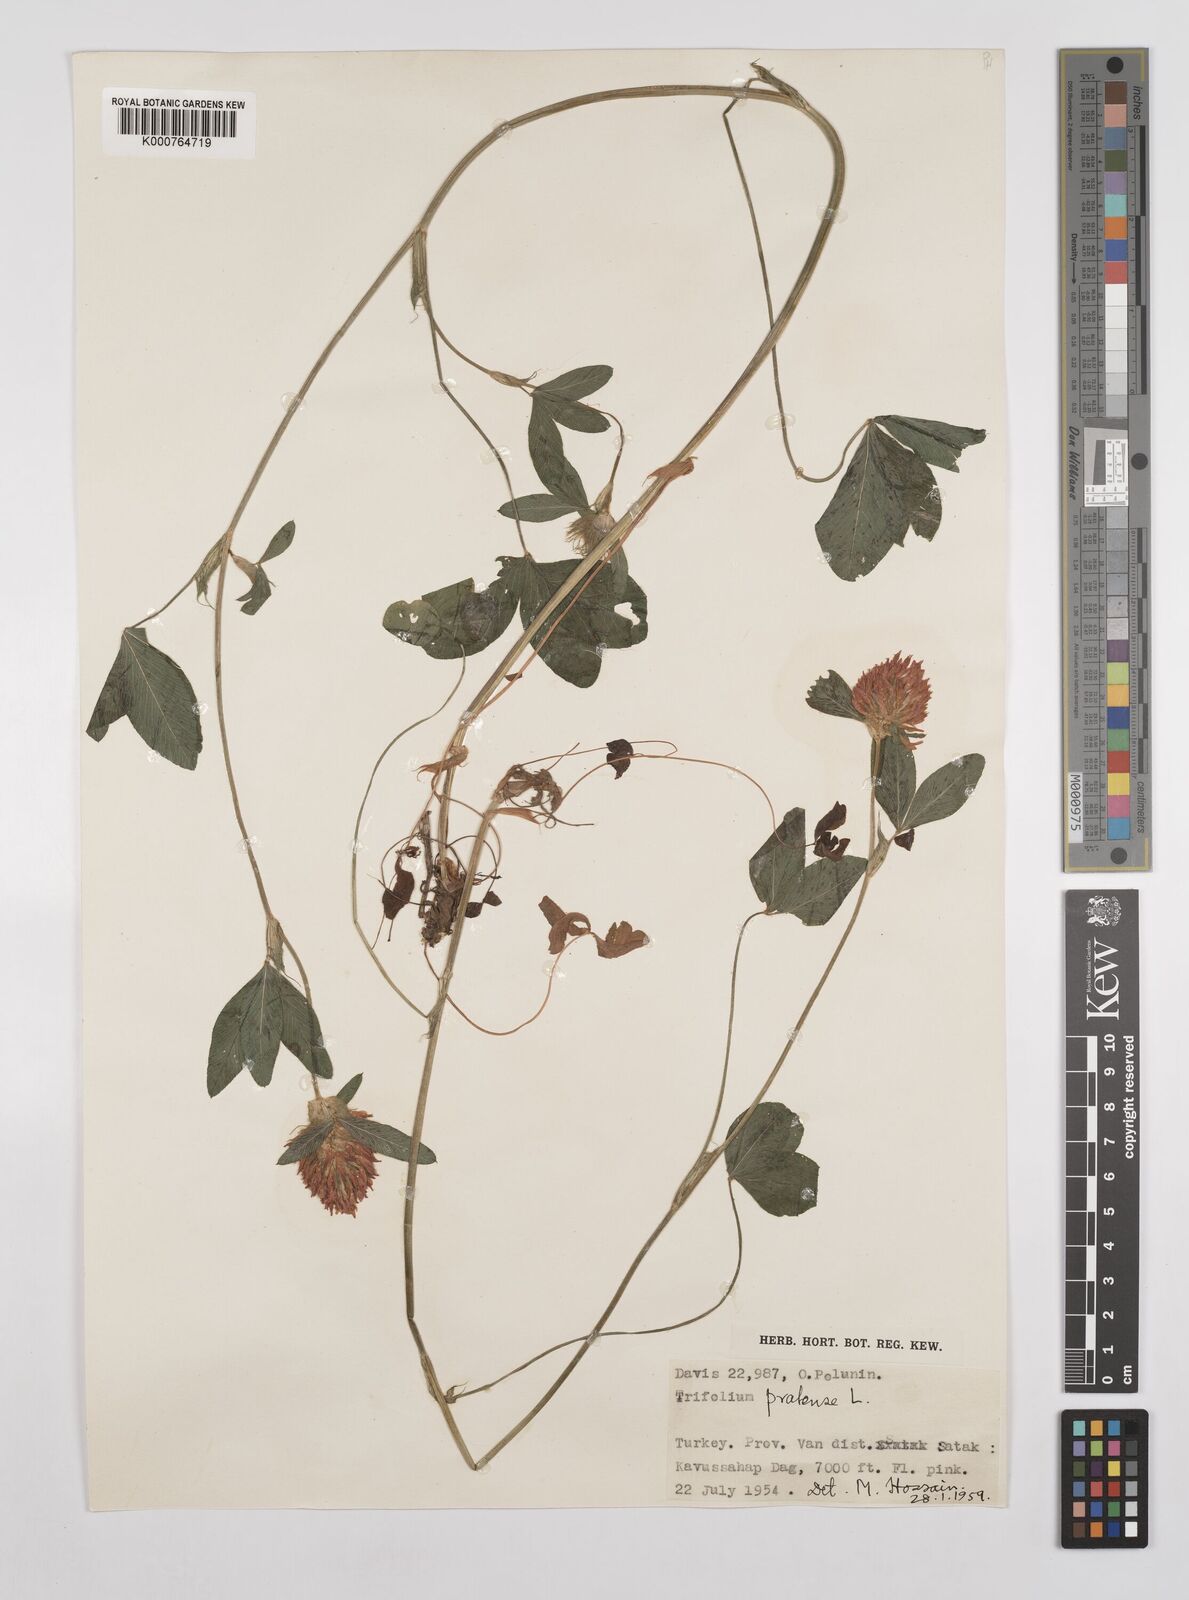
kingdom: Plantae
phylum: Tracheophyta
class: Magnoliopsida
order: Fabales
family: Fabaceae
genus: Trifolium
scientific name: Trifolium pratense
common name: Red clover
